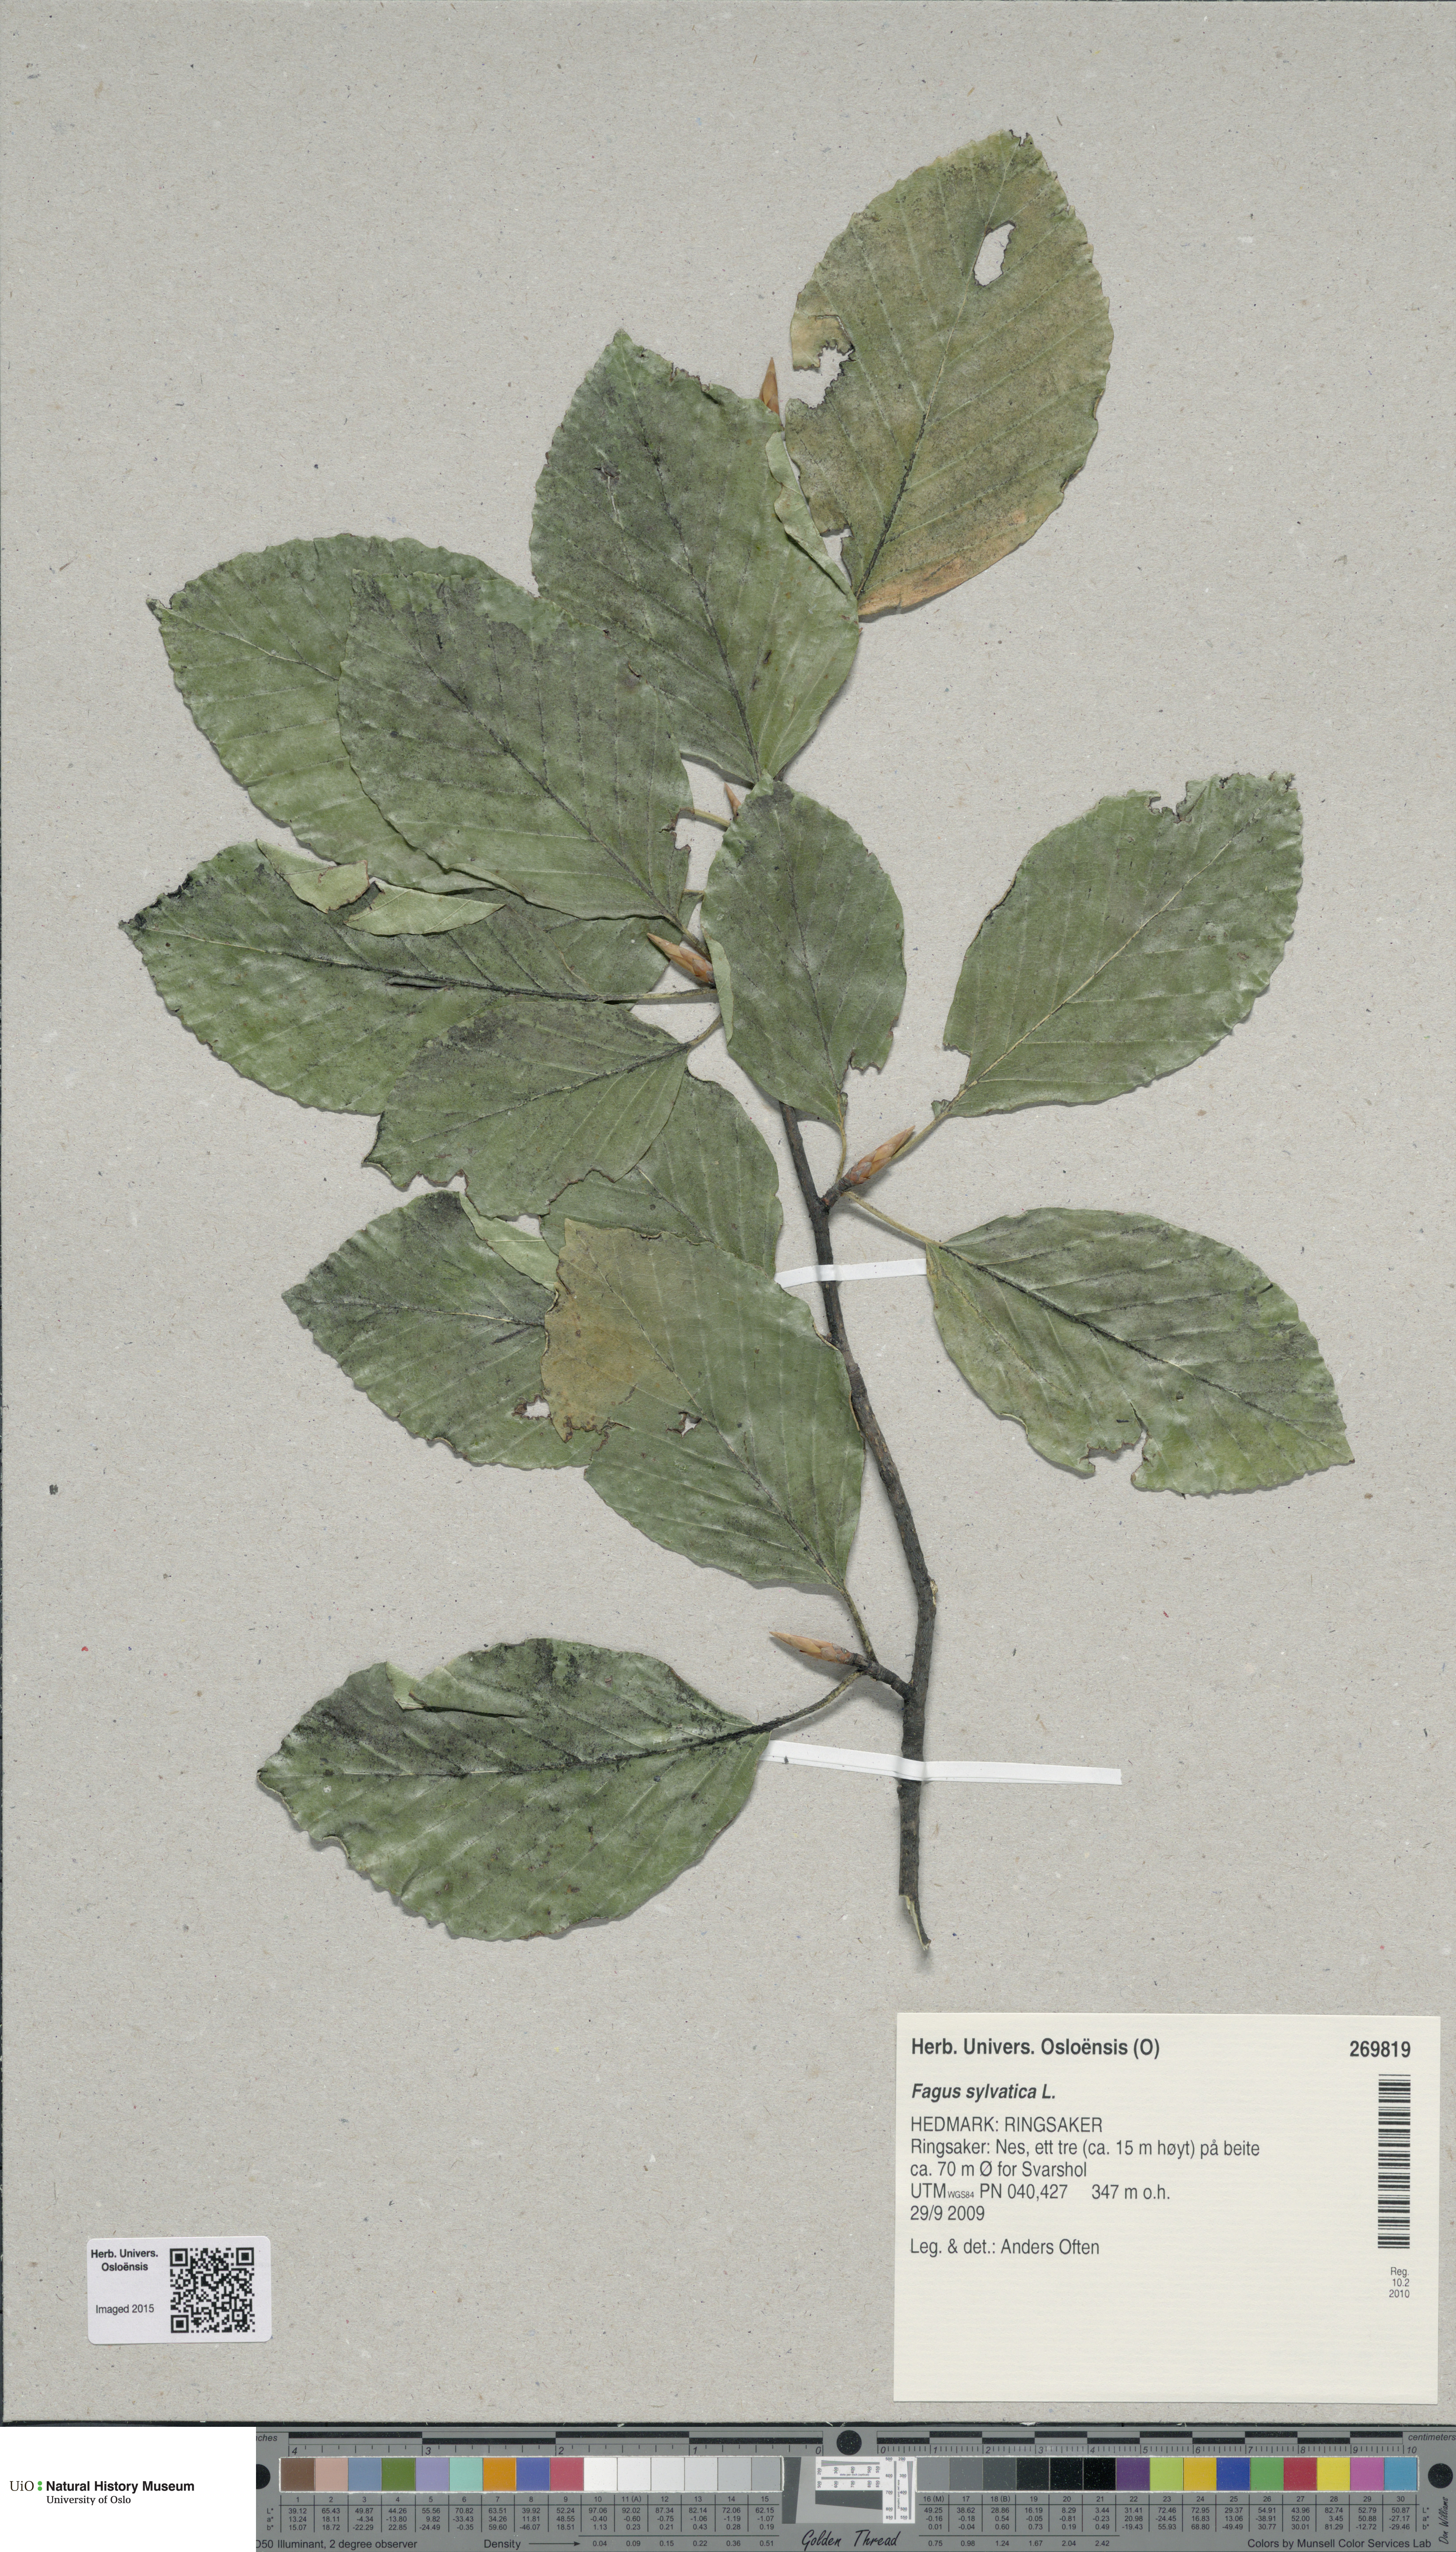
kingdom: Plantae
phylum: Tracheophyta
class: Magnoliopsida
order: Fagales
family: Fagaceae
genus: Fagus
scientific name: Fagus sylvatica
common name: Beech
